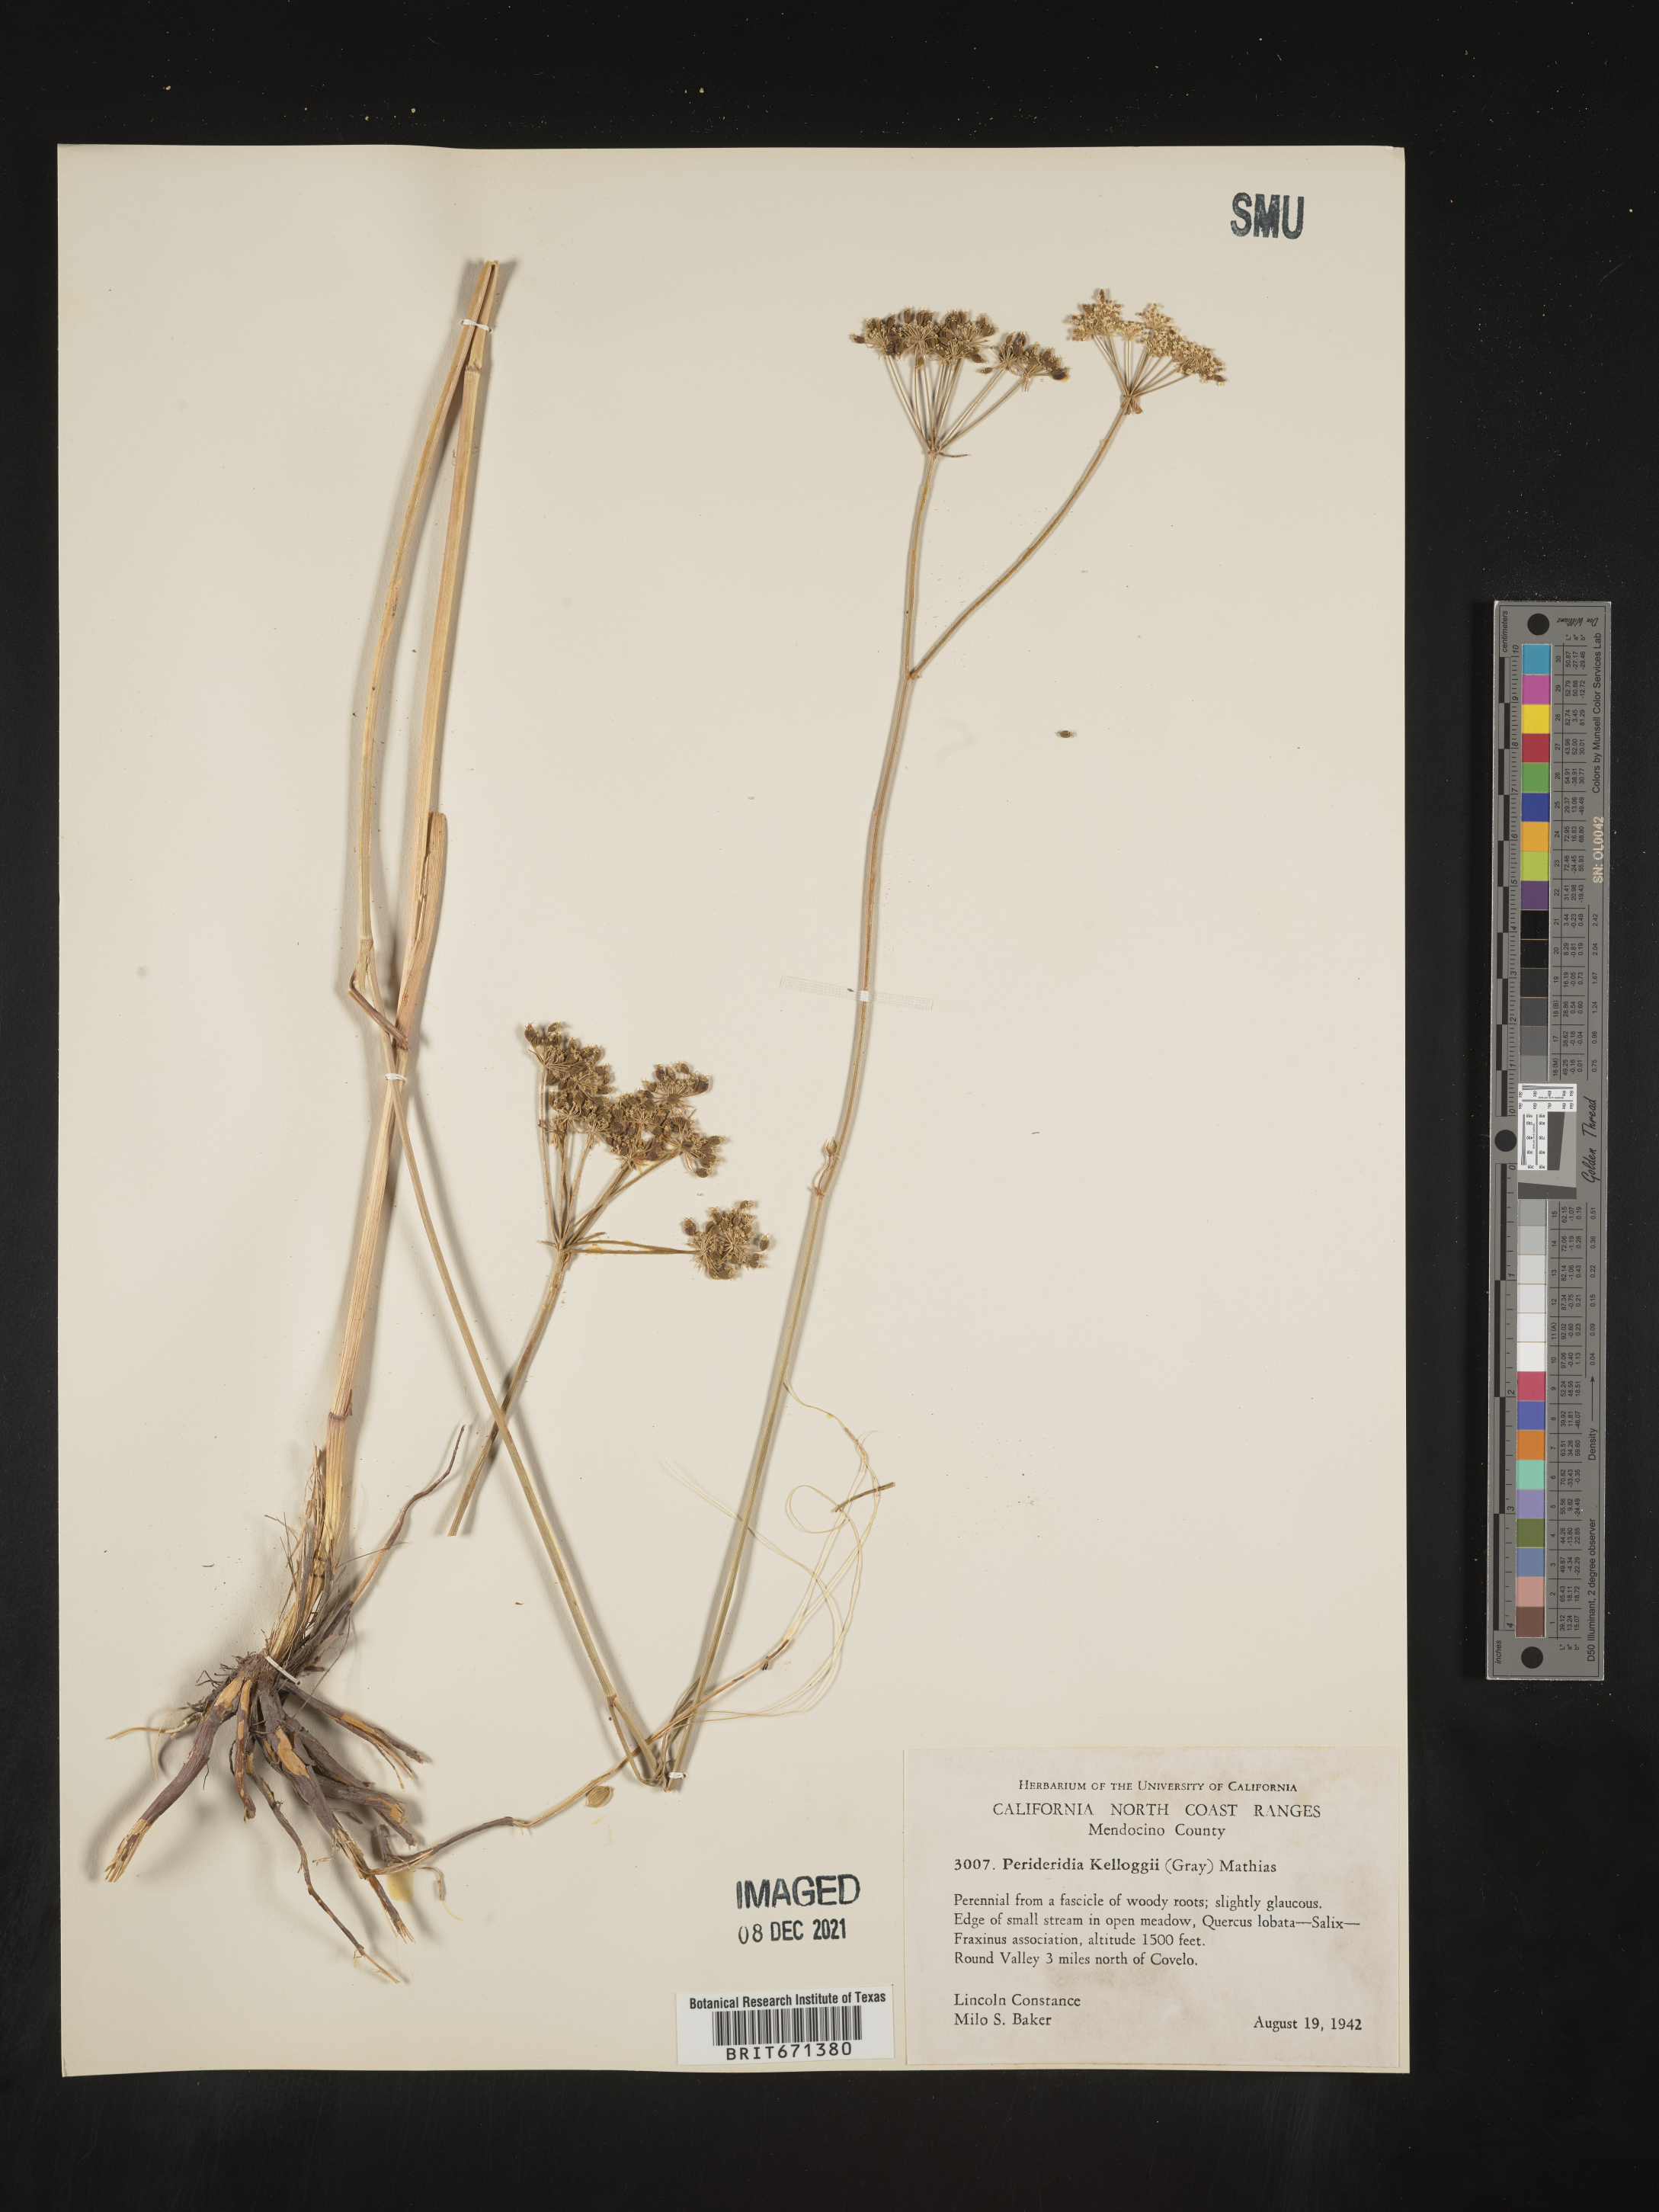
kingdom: Plantae
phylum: Tracheophyta
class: Magnoliopsida
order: Apiales
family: Apiaceae
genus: Perideridia
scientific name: Perideridia kelloggii
